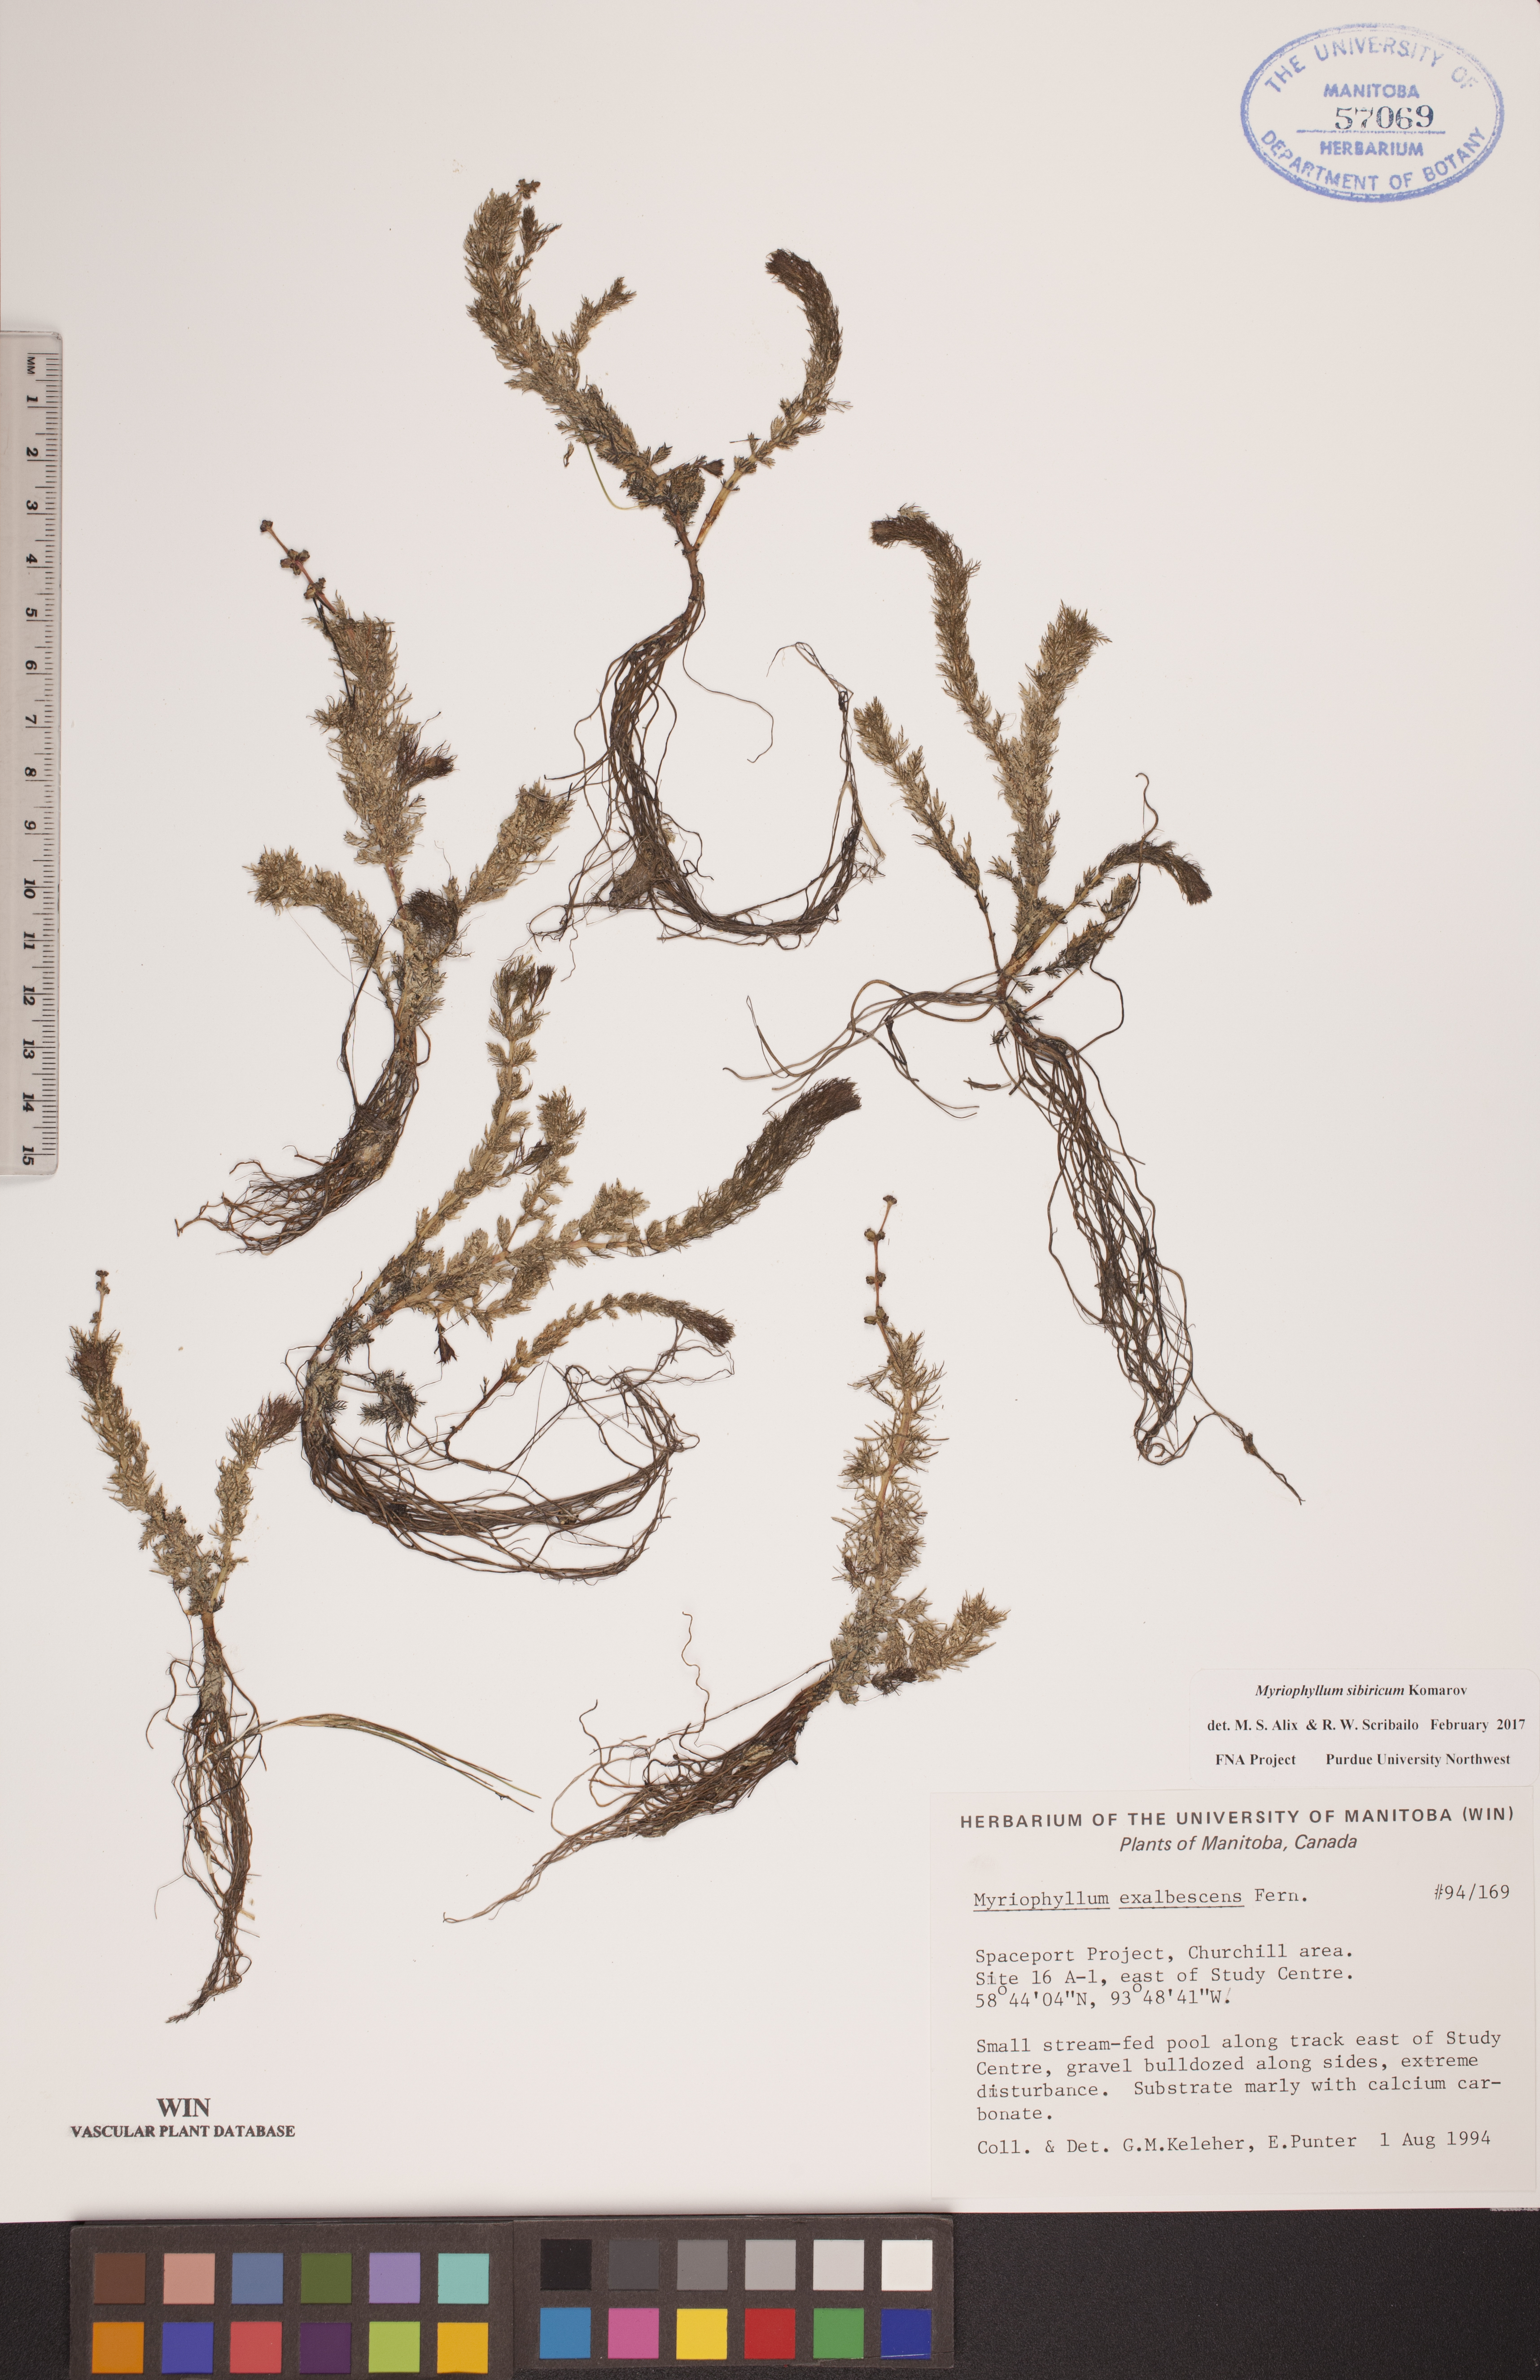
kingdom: Plantae
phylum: Tracheophyta
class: Magnoliopsida
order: Saxifragales
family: Haloragaceae
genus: Myriophyllum
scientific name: Myriophyllum sibiricum
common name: Siberian water-milfoil
